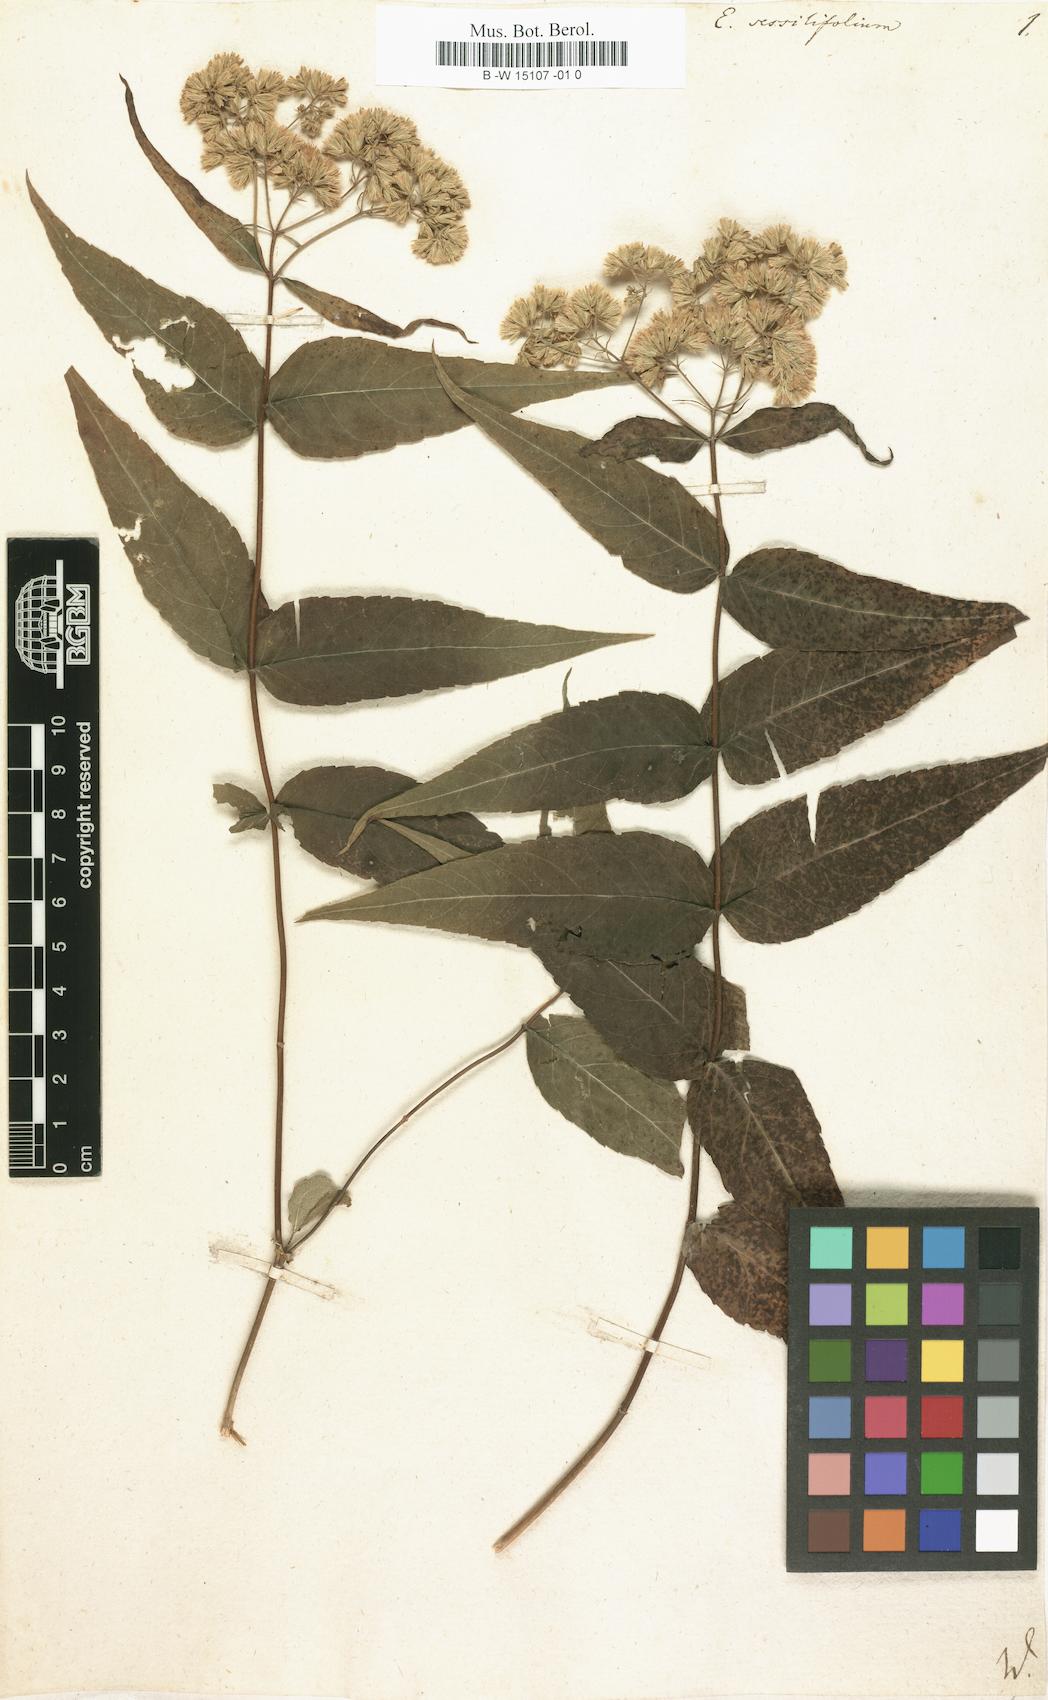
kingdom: Plantae
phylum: Tracheophyta
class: Magnoliopsida
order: Asterales
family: Asteraceae
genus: Eupatorium
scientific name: Eupatorium sessilifolium
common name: Upland boneset
